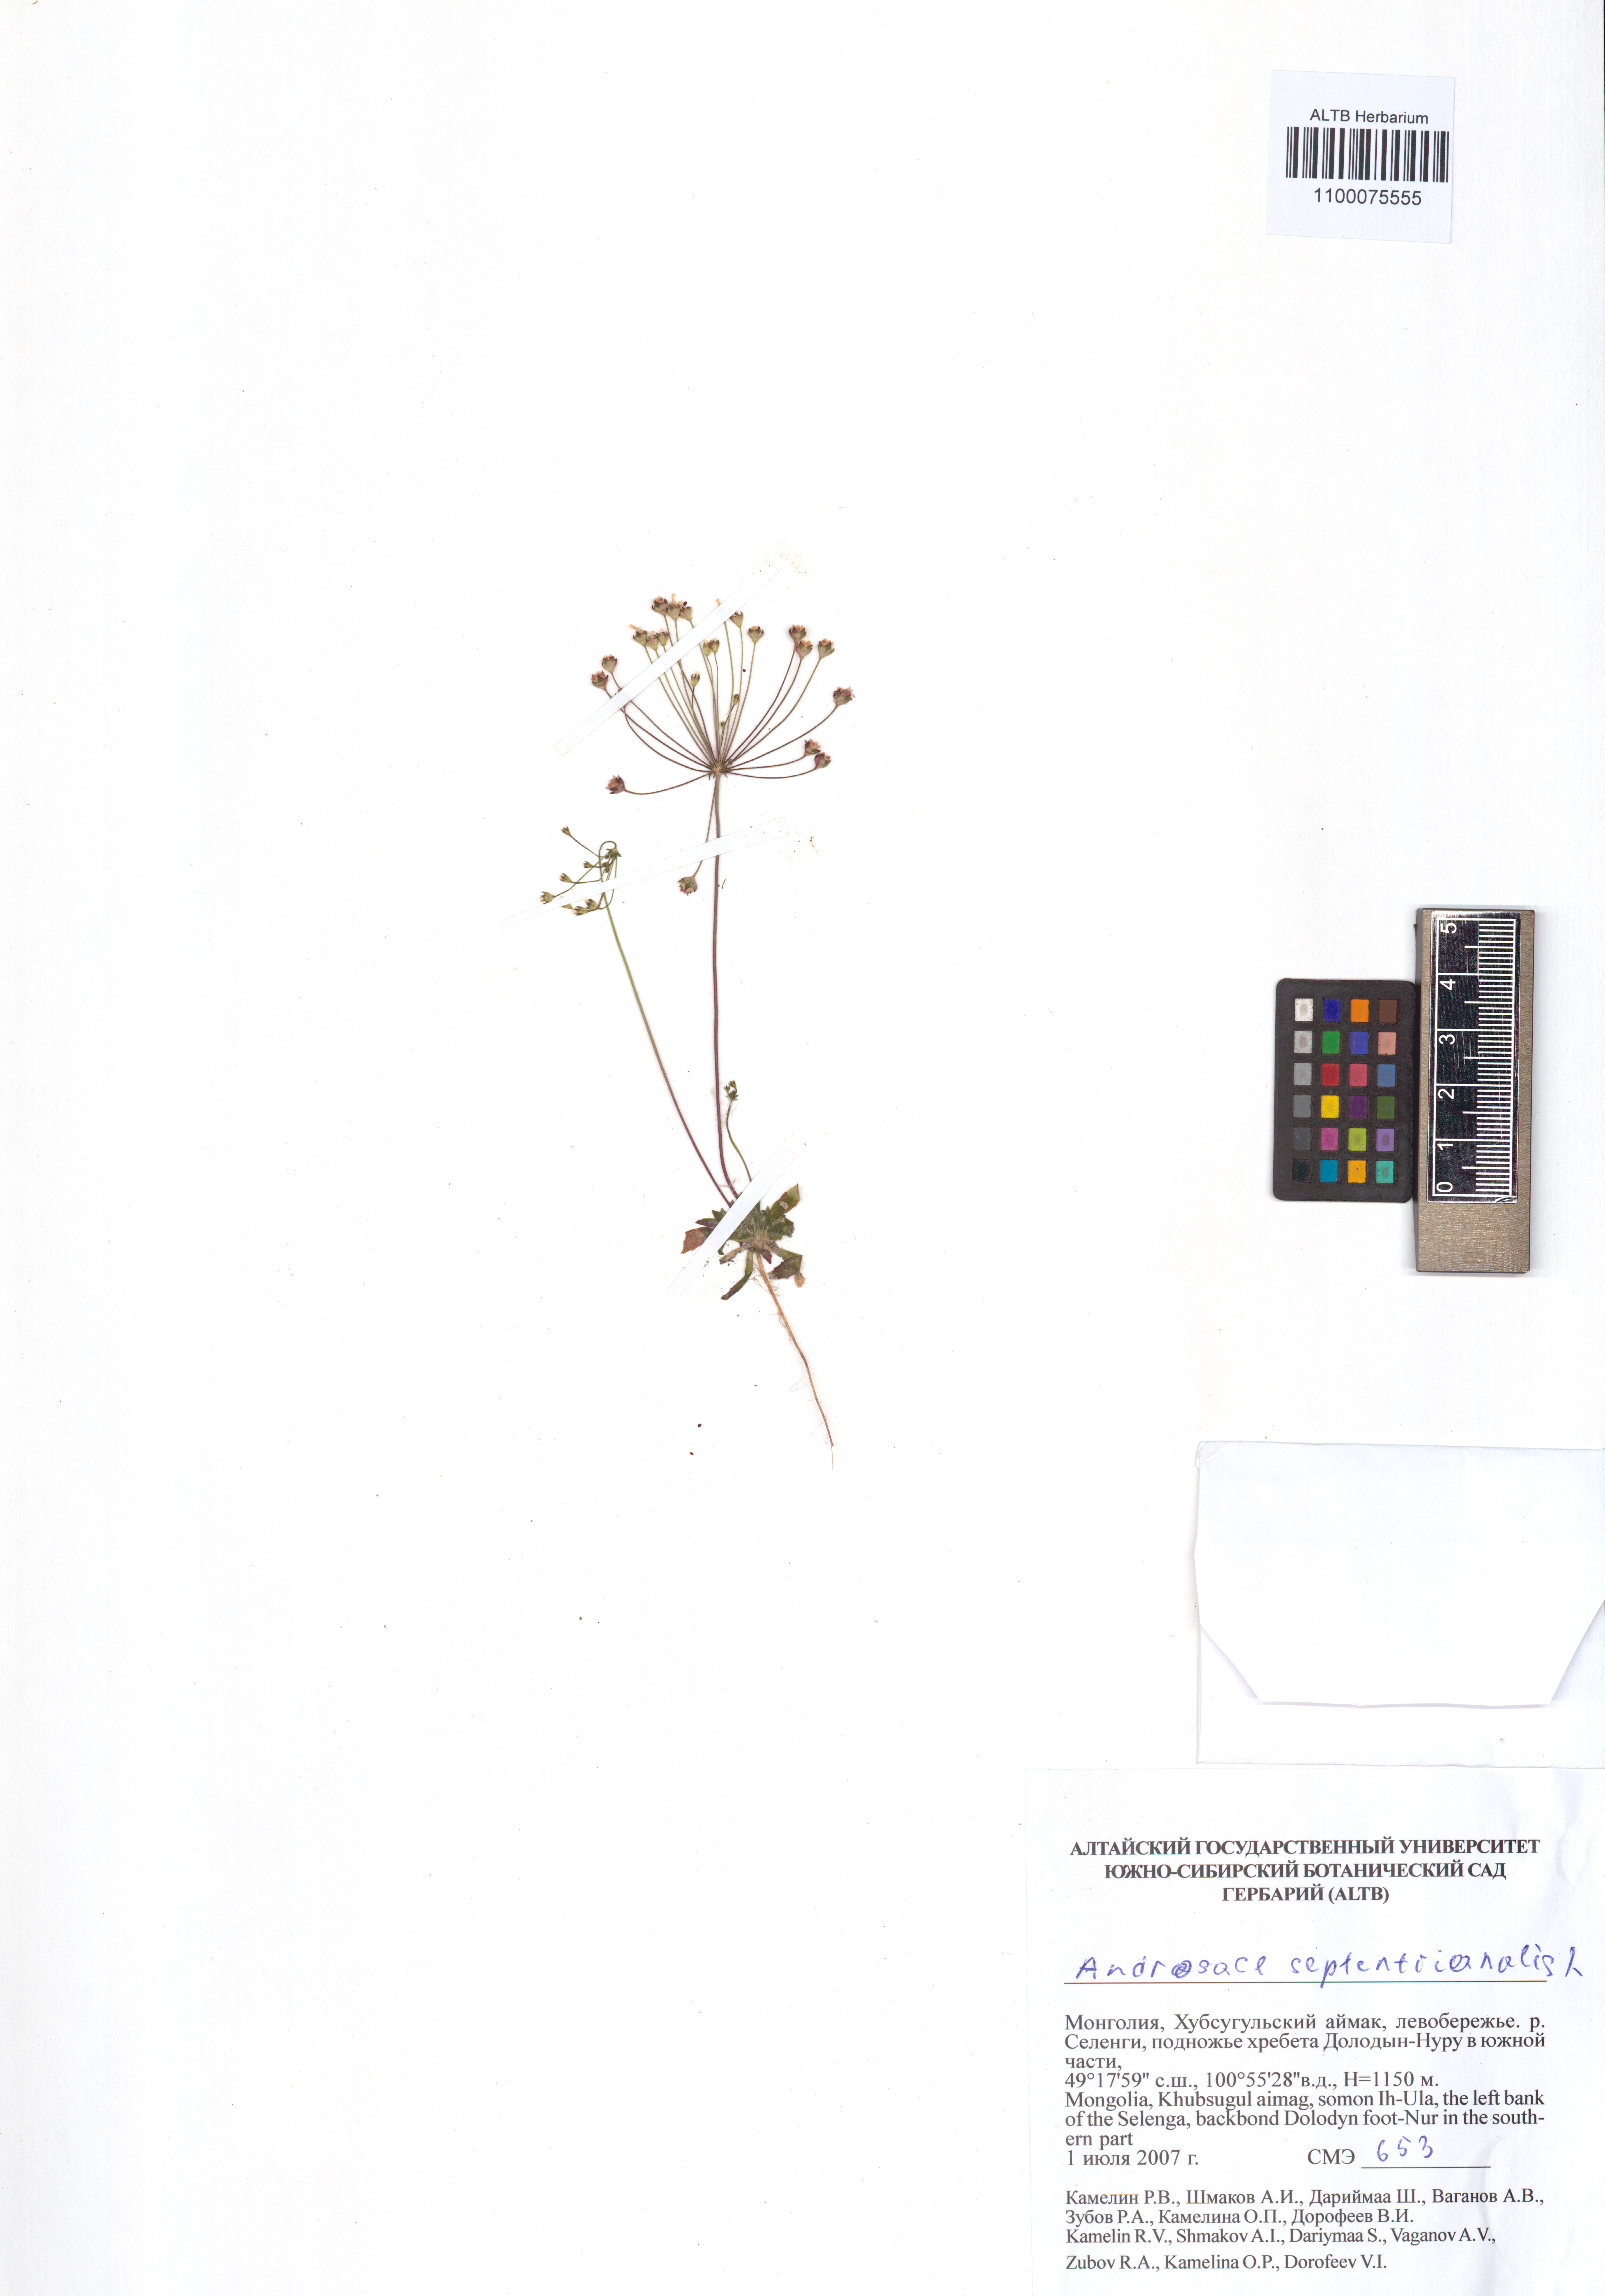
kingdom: Plantae
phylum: Tracheophyta
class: Magnoliopsida
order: Ericales
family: Primulaceae
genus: Androsace
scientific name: Androsace septentrionalis
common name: Hairy northern fairy-candelabra
